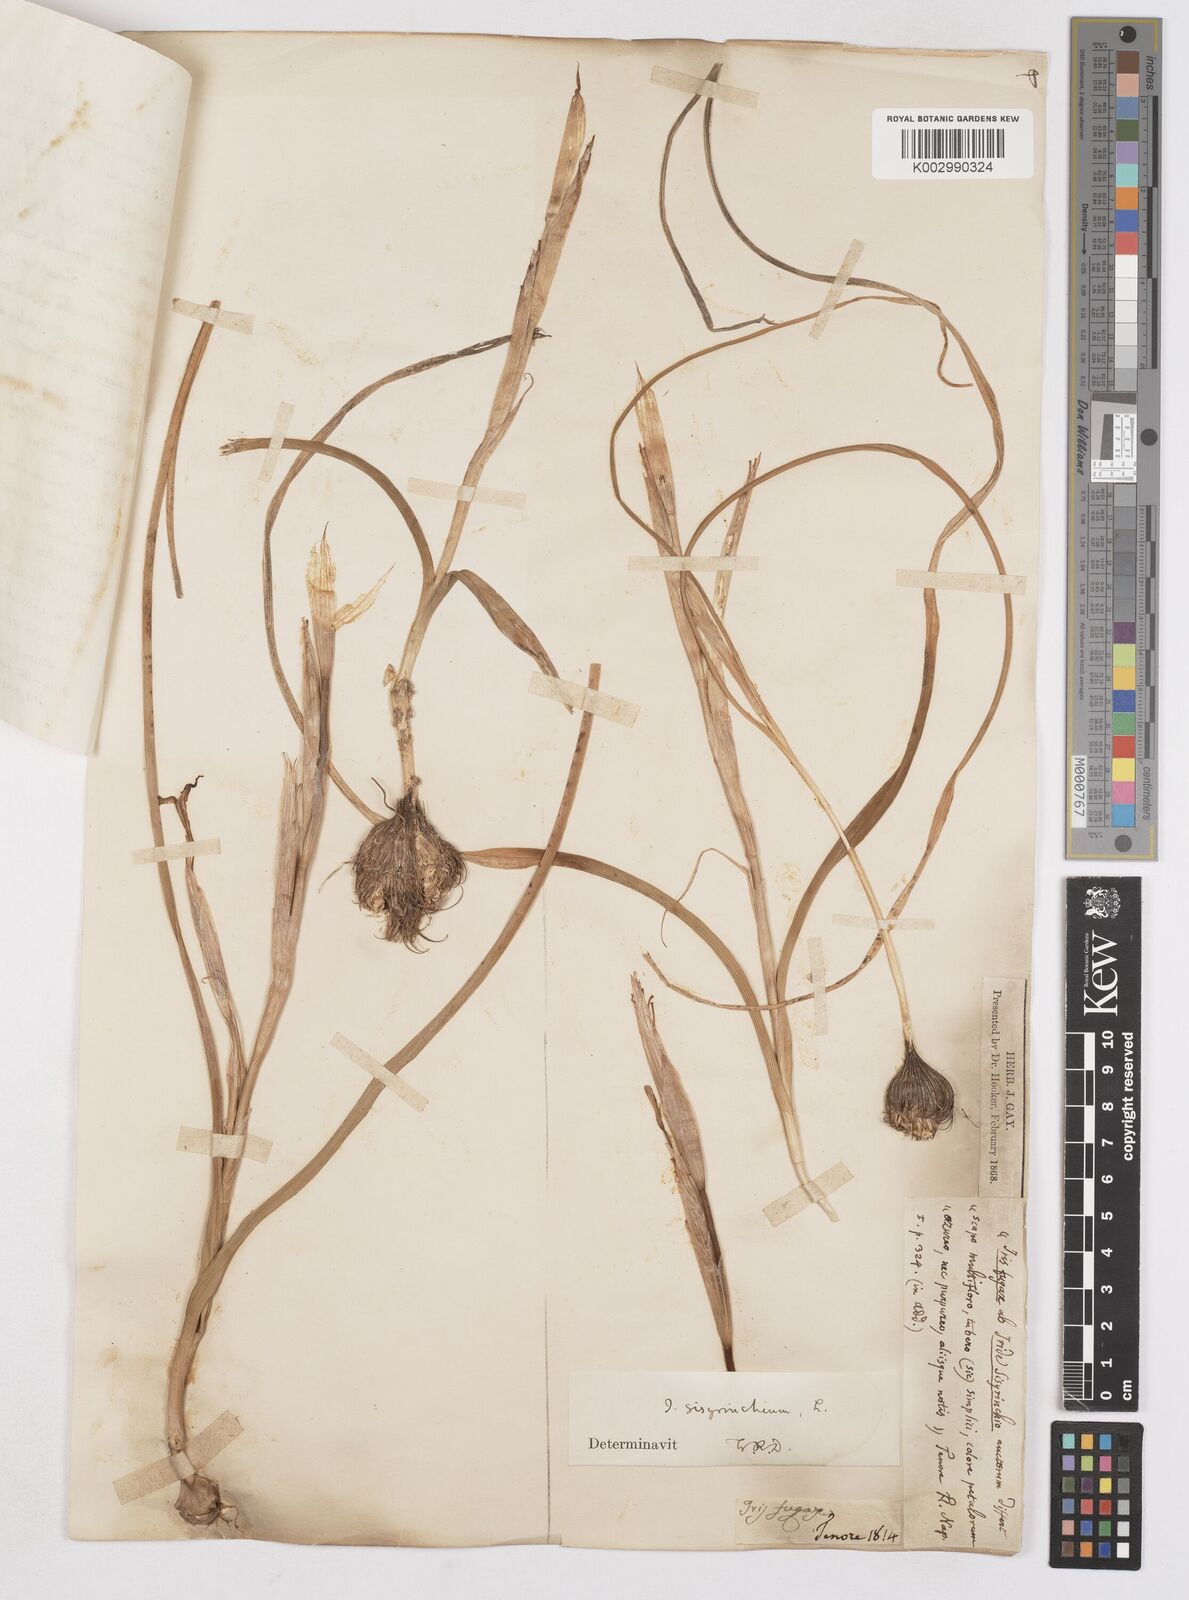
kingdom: Plantae
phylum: Tracheophyta
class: Liliopsida
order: Asparagales
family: Iridaceae
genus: Moraea
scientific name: Moraea sisyrinchium
